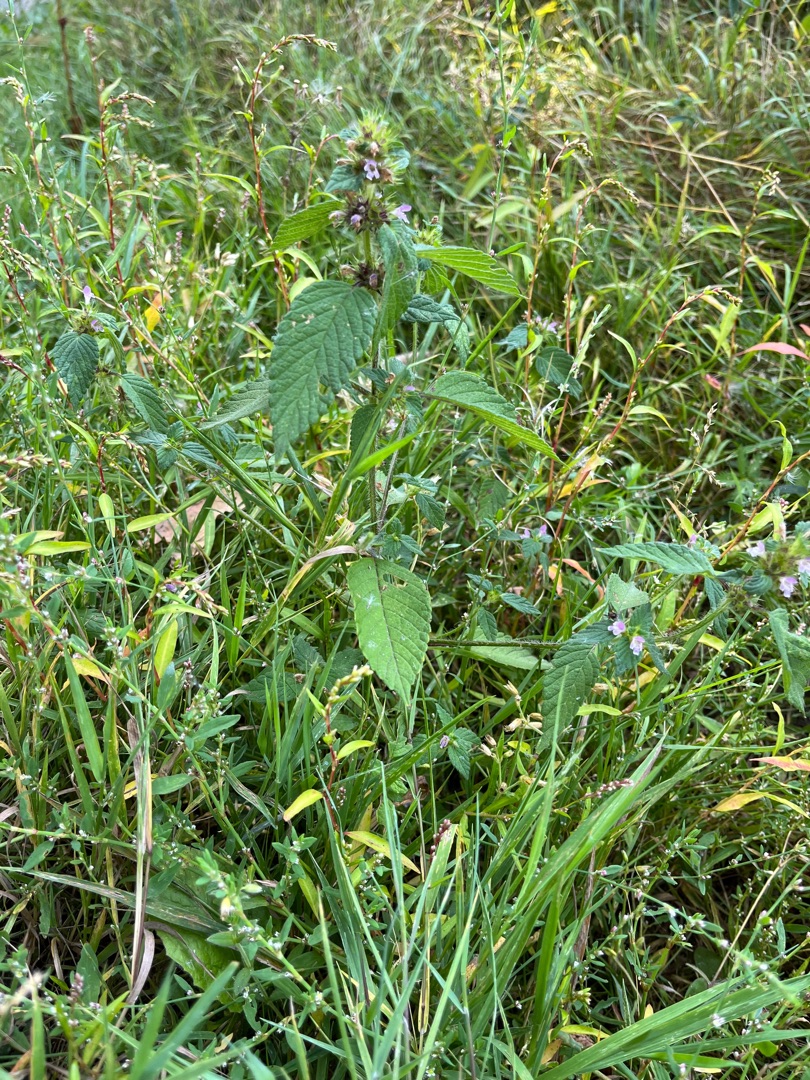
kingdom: Plantae
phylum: Tracheophyta
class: Magnoliopsida
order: Lamiales
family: Lamiaceae
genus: Galeopsis
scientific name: Galeopsis bifida
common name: Skov-hanekro
